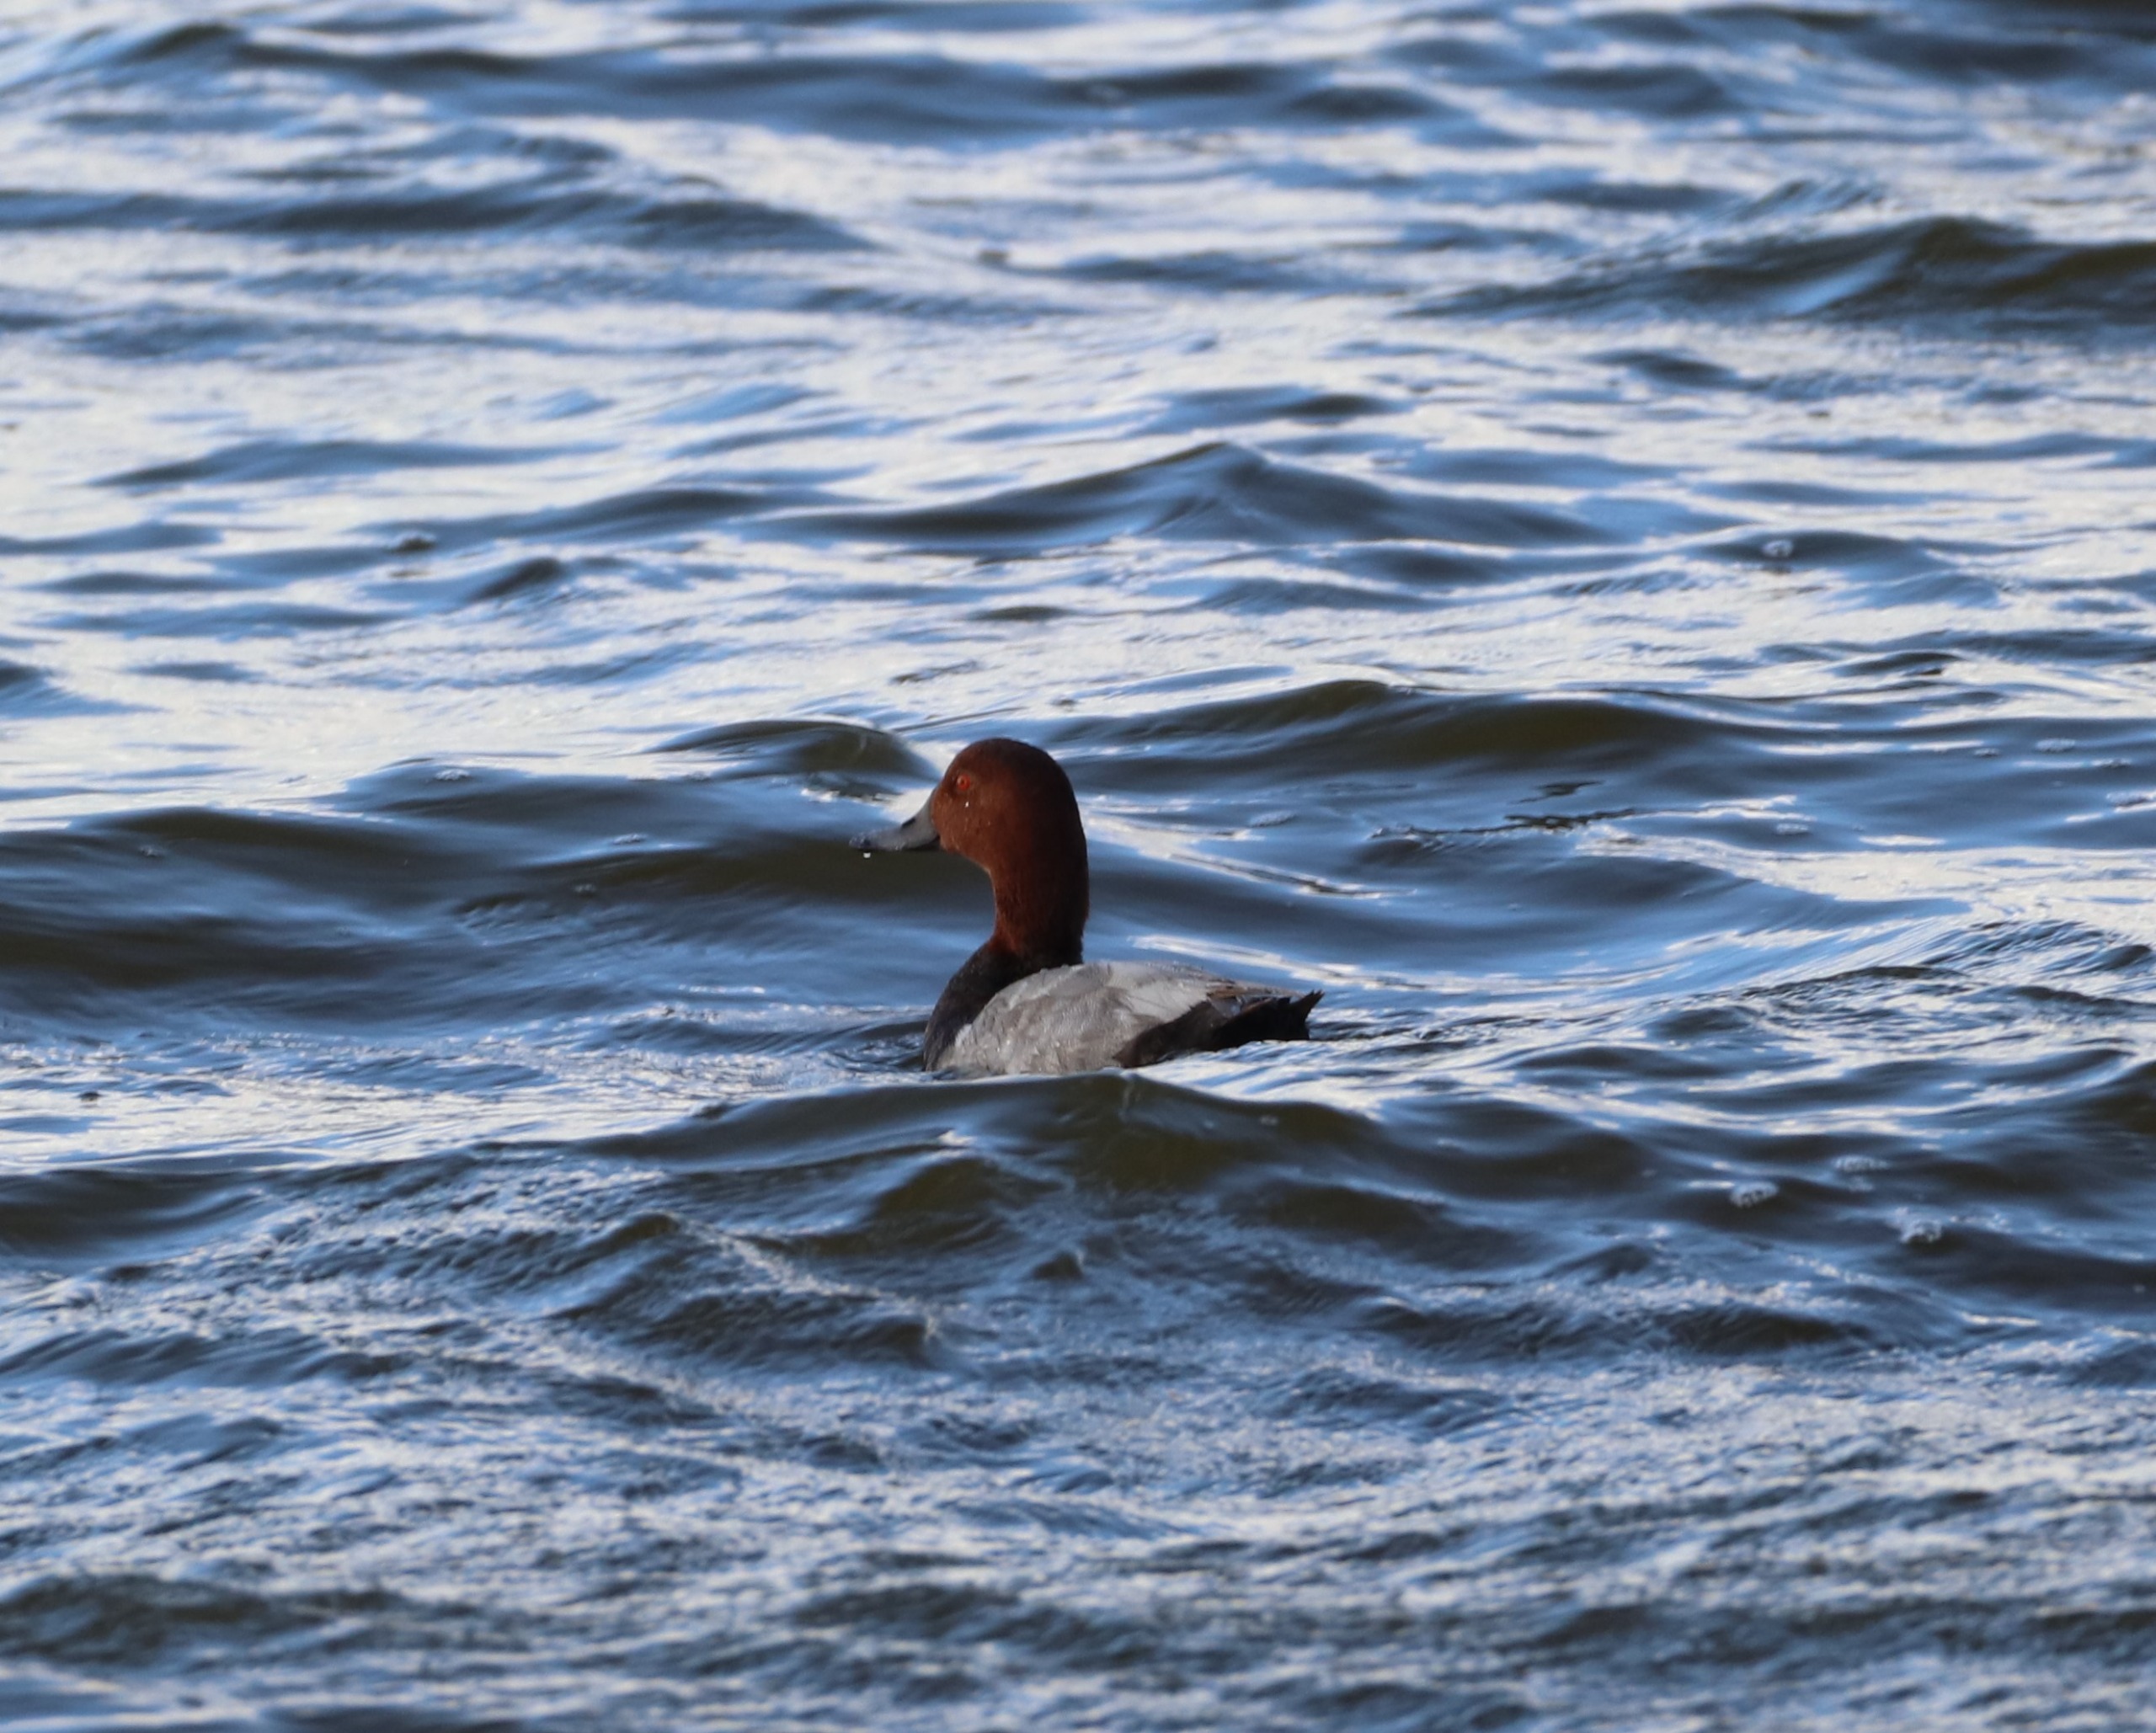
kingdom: Animalia
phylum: Chordata
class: Aves
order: Anseriformes
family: Anatidae
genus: Aythya
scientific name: Aythya ferina
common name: Taffeland
